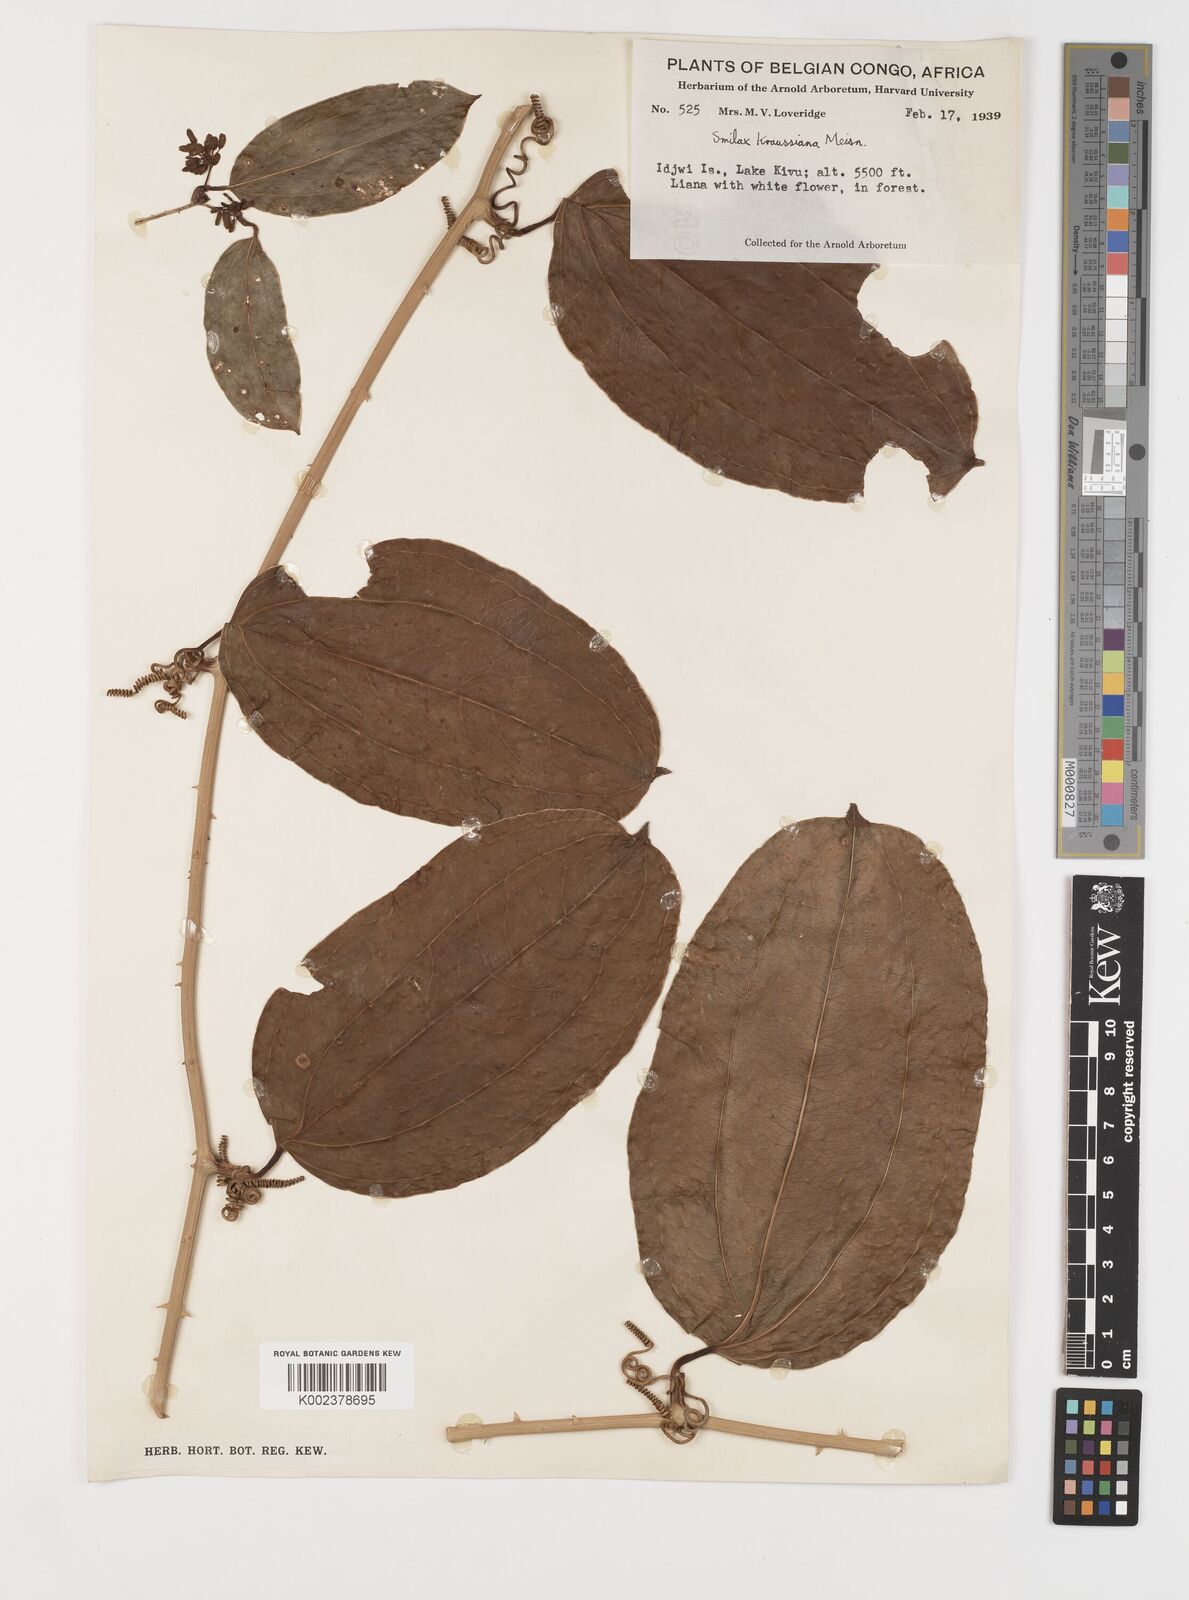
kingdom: Plantae
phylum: Tracheophyta
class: Liliopsida
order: Liliales
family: Smilacaceae
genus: Smilax
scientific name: Smilax anceps
